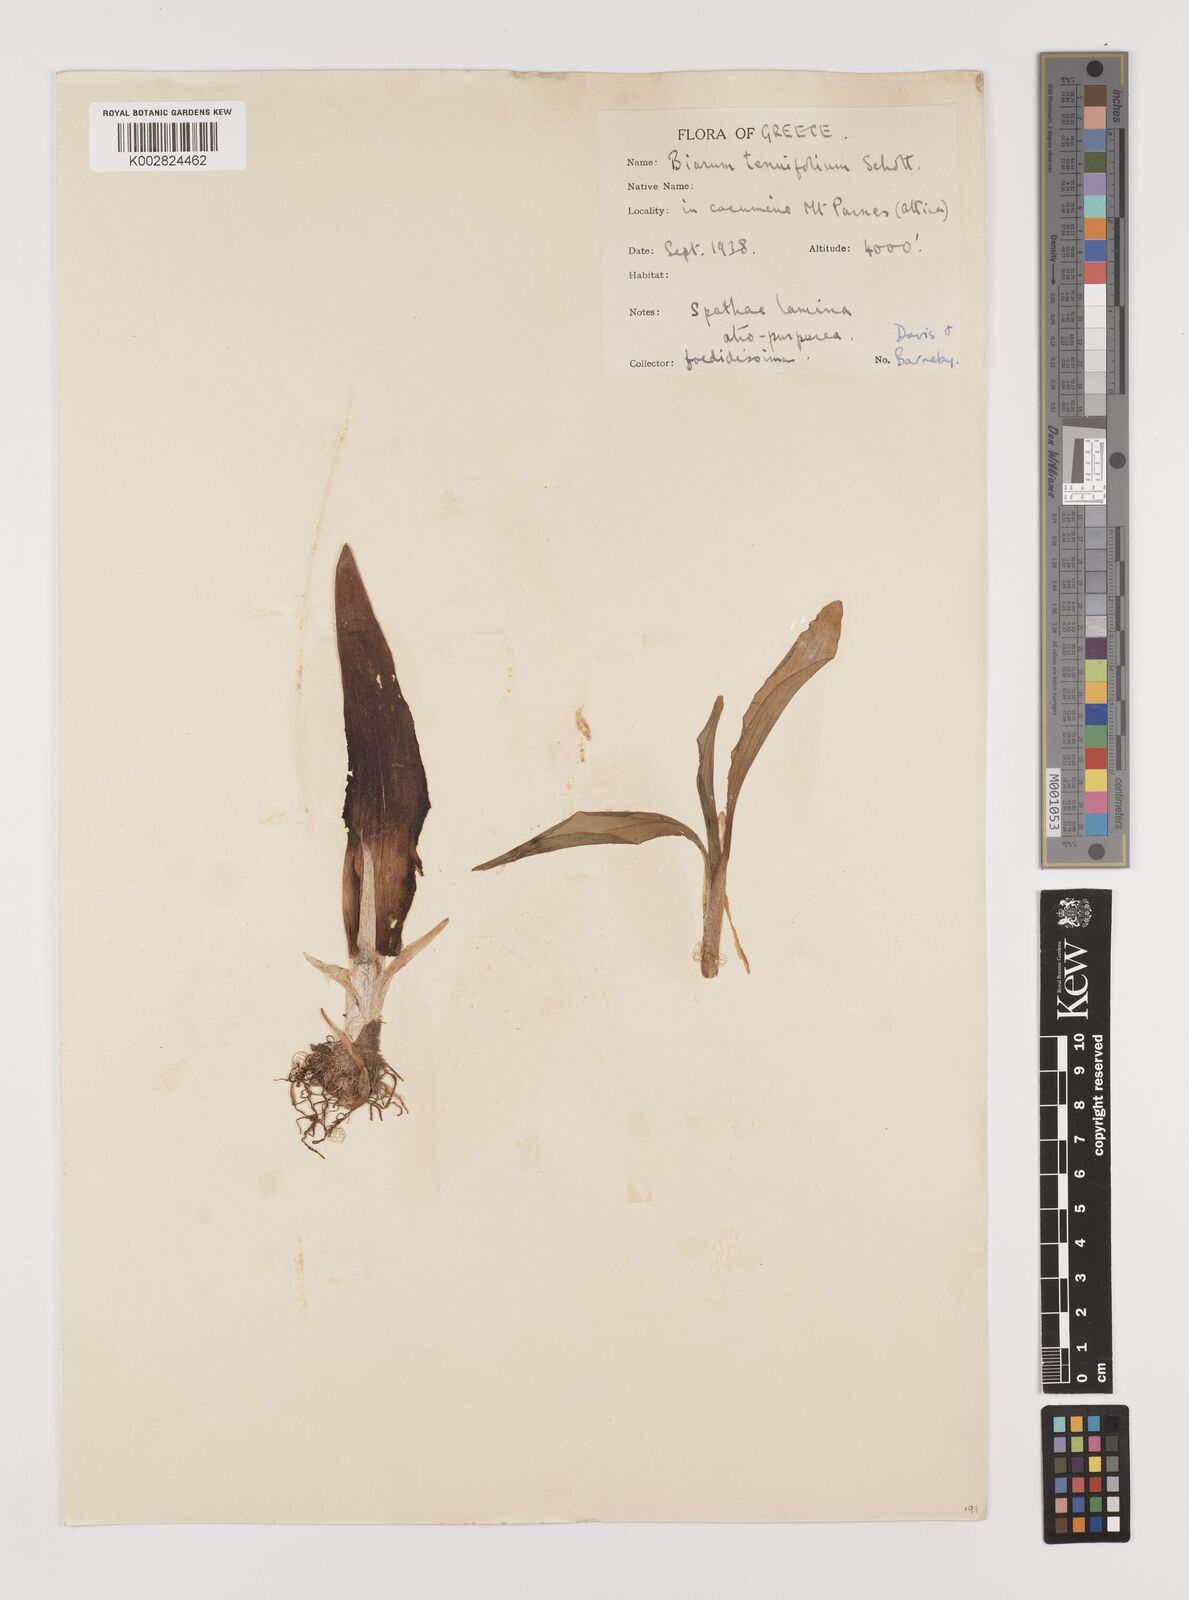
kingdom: Plantae
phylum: Tracheophyta
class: Liliopsida
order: Alismatales
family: Araceae
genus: Biarum
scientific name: Biarum tenuifolium
